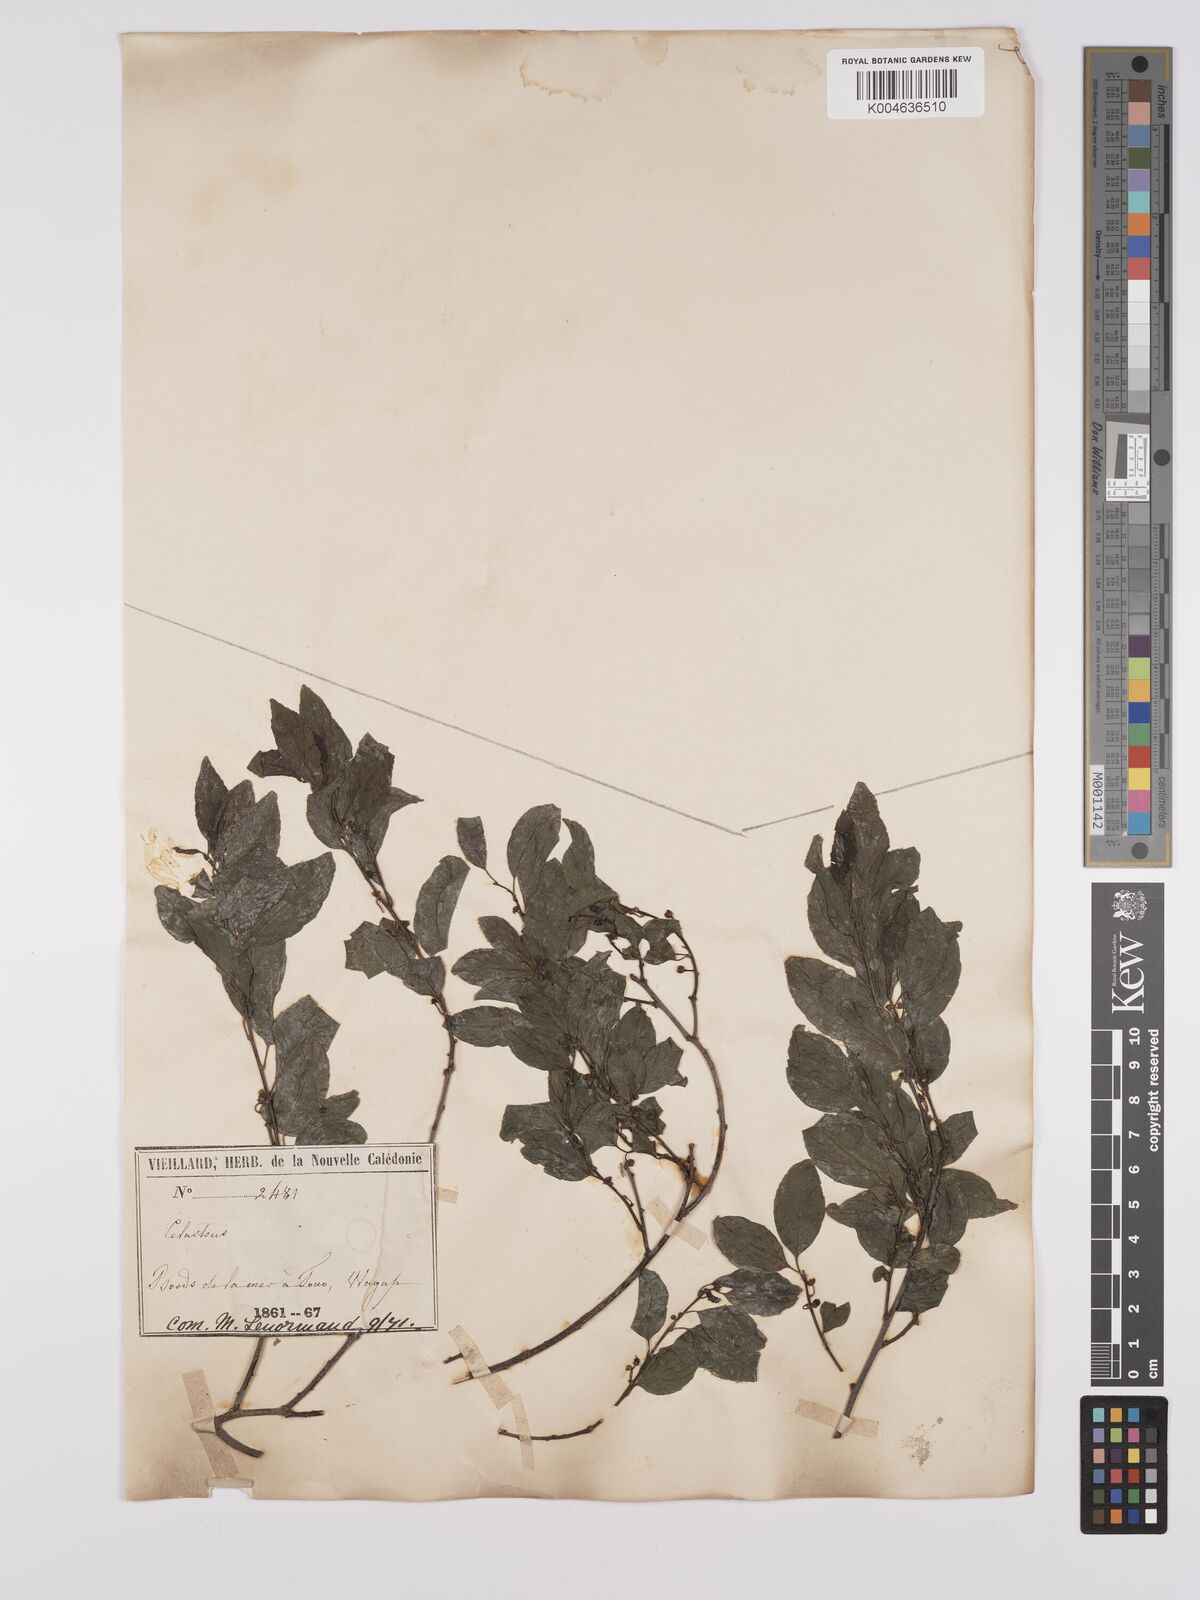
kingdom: Plantae
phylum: Tracheophyta
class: Magnoliopsida
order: Celastrales
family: Celastraceae
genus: Celastrus
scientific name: Celastrus
